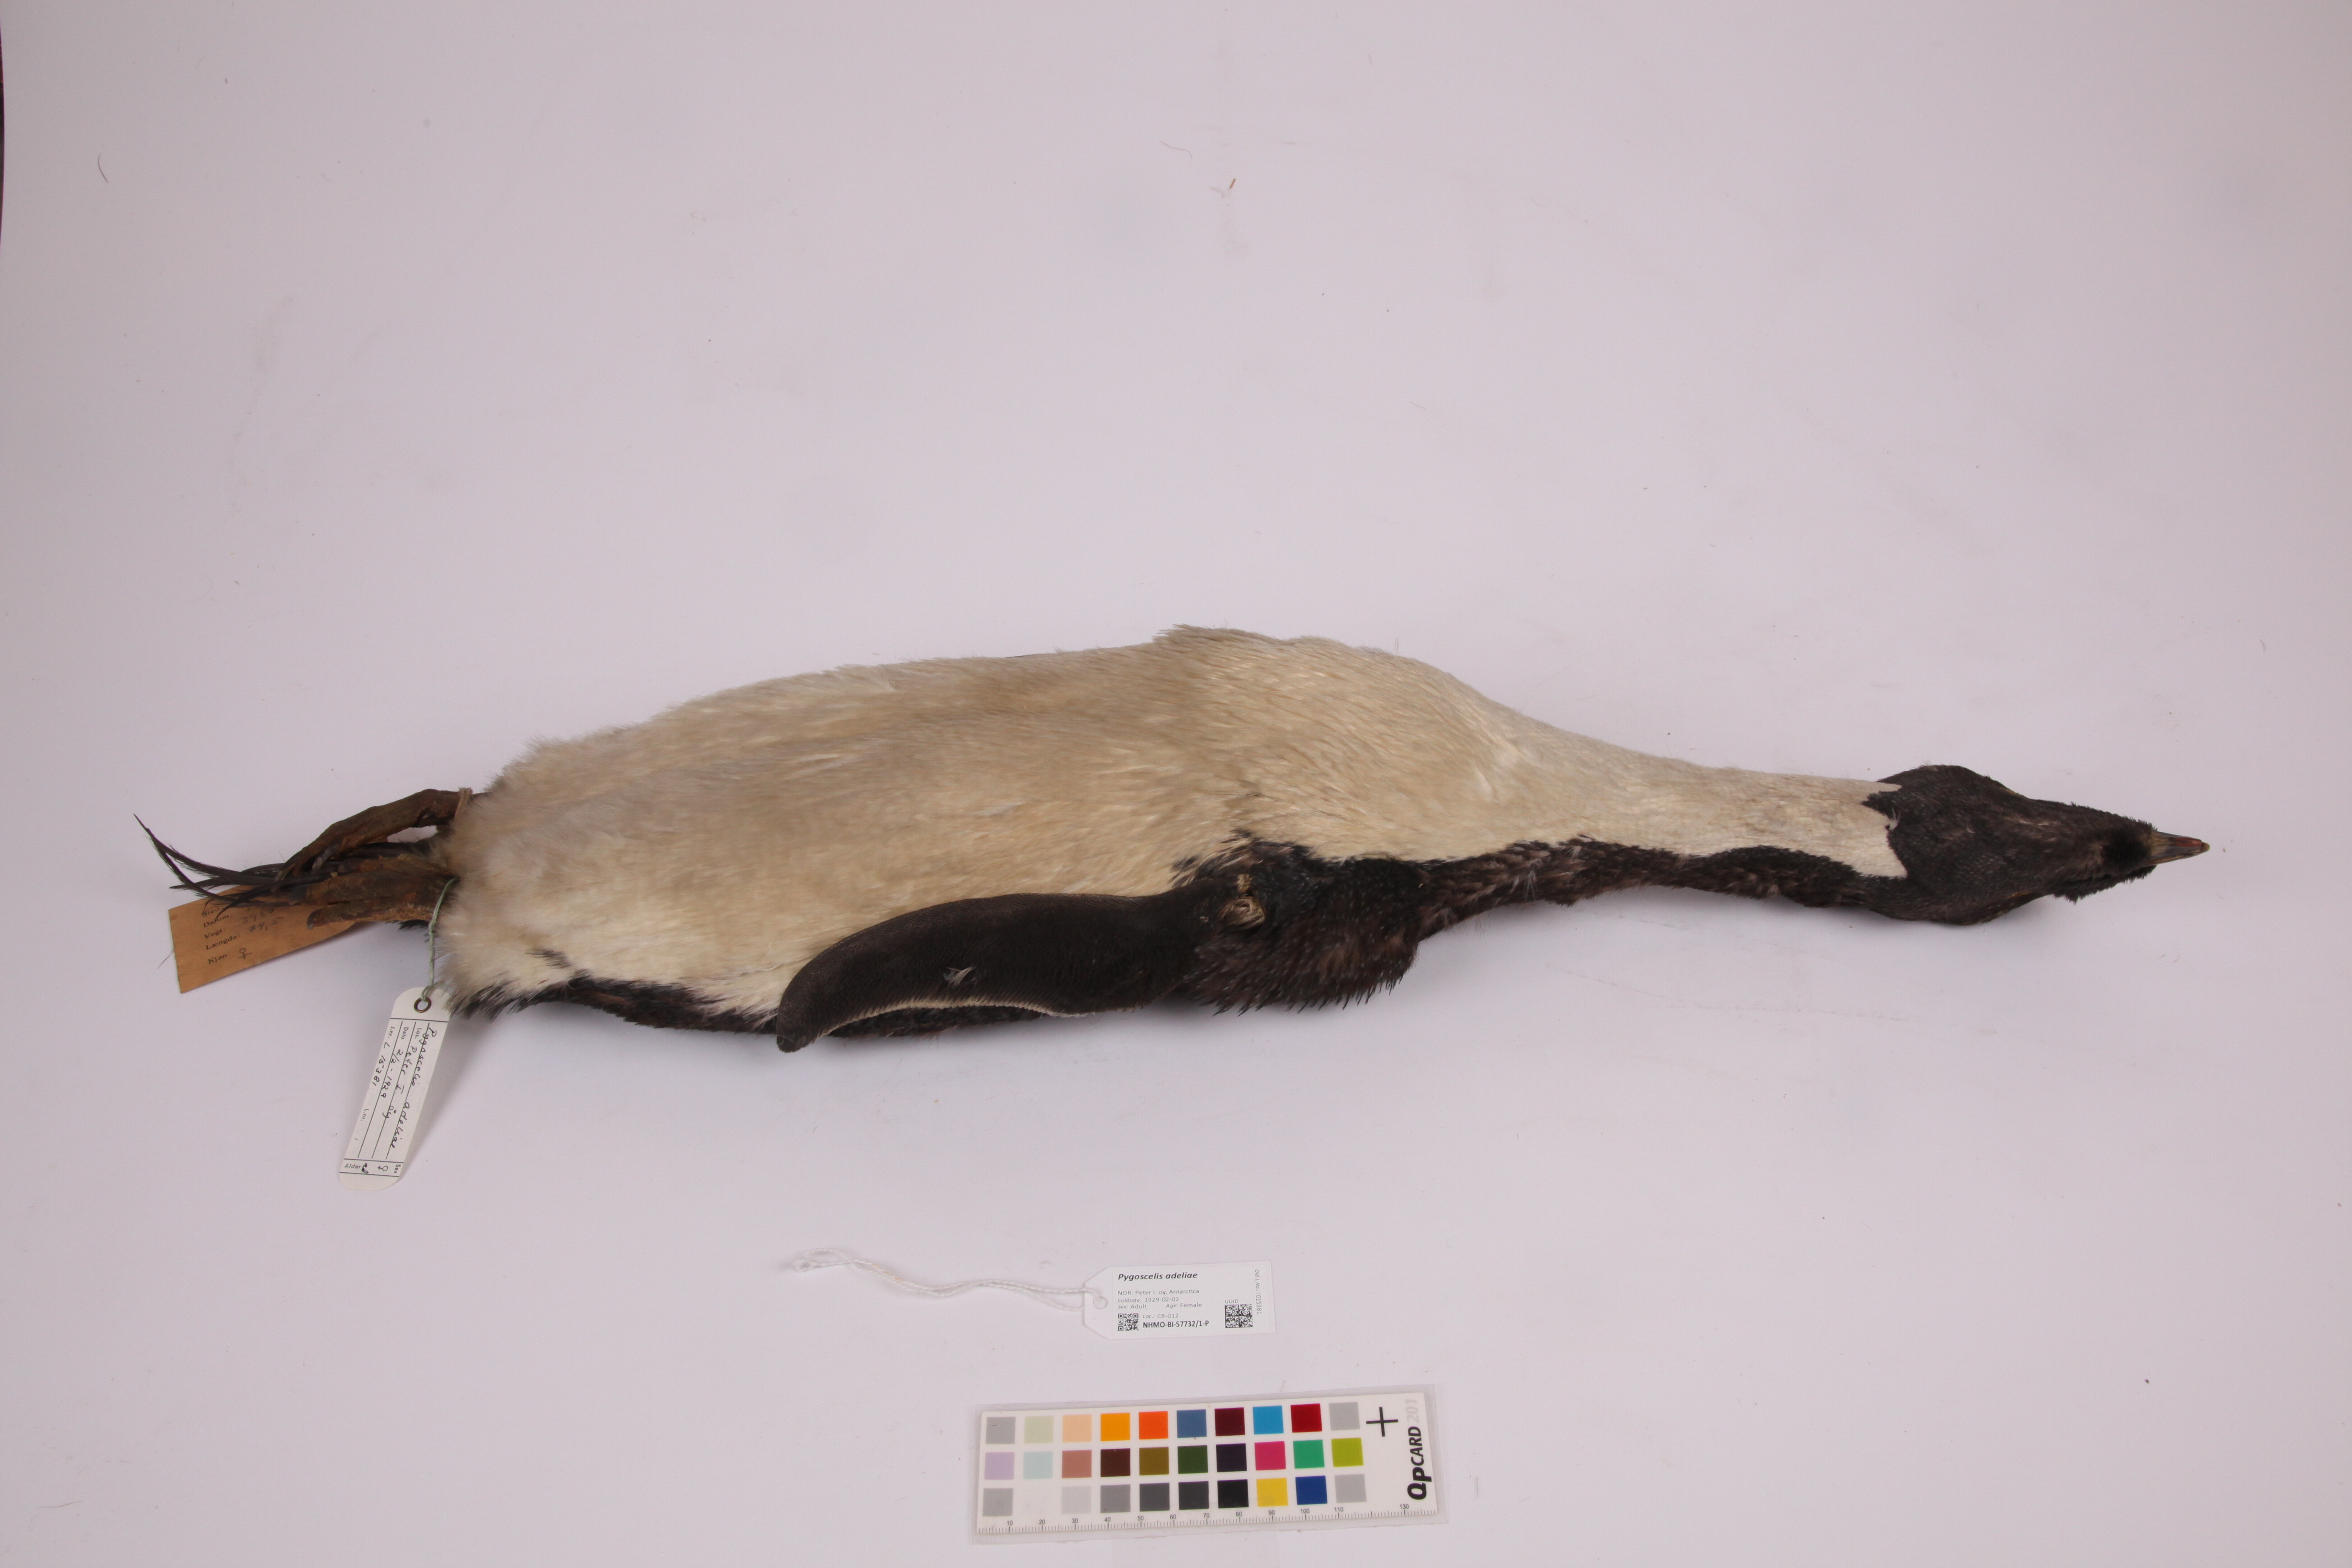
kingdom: Animalia
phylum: Chordata
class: Aves
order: Sphenisciformes
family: Spheniscidae
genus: Pygoscelis
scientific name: Pygoscelis adeliae
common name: Adelie penguin
